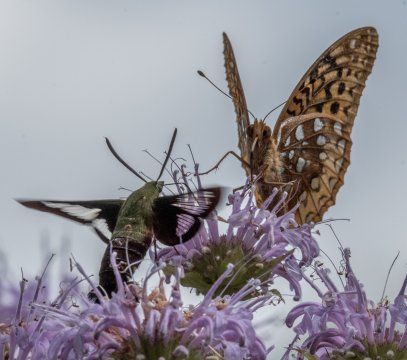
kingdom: Animalia
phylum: Arthropoda
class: Insecta
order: Lepidoptera
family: Nymphalidae
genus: Speyeria
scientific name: Speyeria cybele
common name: Great Spangled Fritillary
